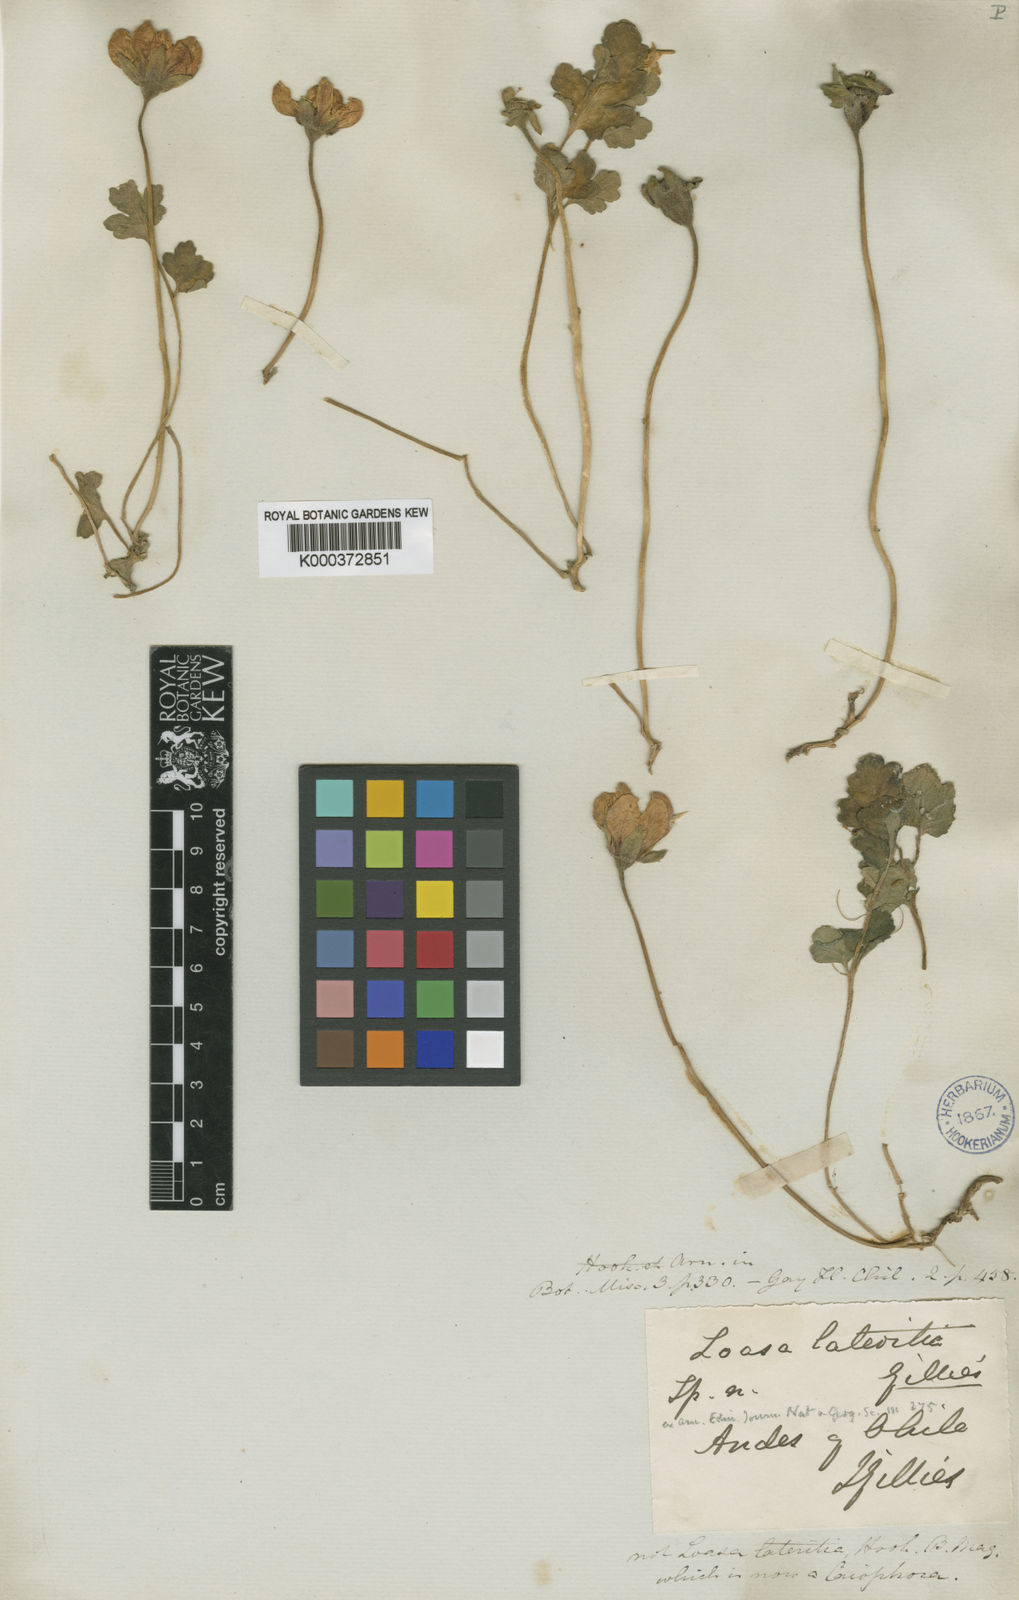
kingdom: Plantae
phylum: Tracheophyta
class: Magnoliopsida
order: Cornales
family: Loasaceae
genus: Grausa
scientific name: Grausa lateritia
